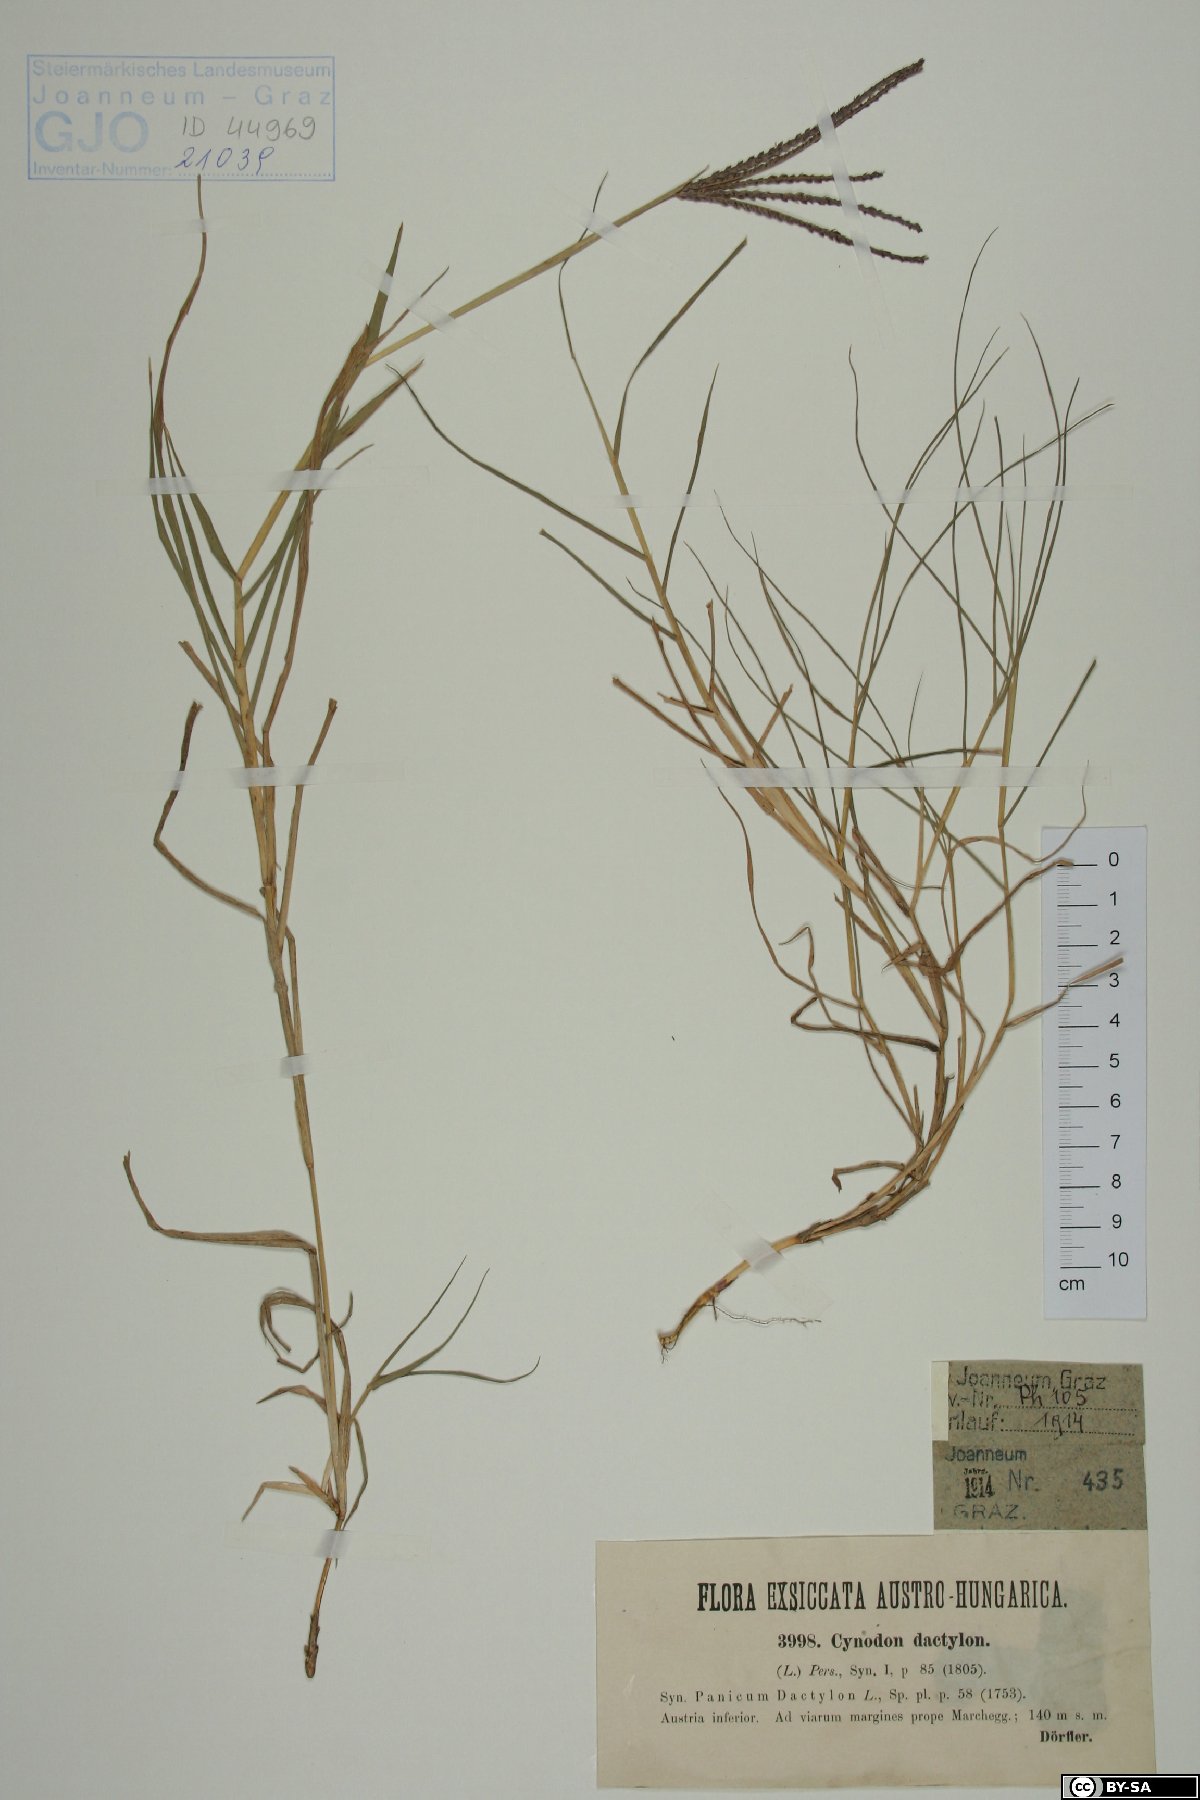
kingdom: Plantae
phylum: Tracheophyta
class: Liliopsida
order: Poales
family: Poaceae
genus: Cynodon
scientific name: Cynodon dactylon
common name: Bermuda grass
